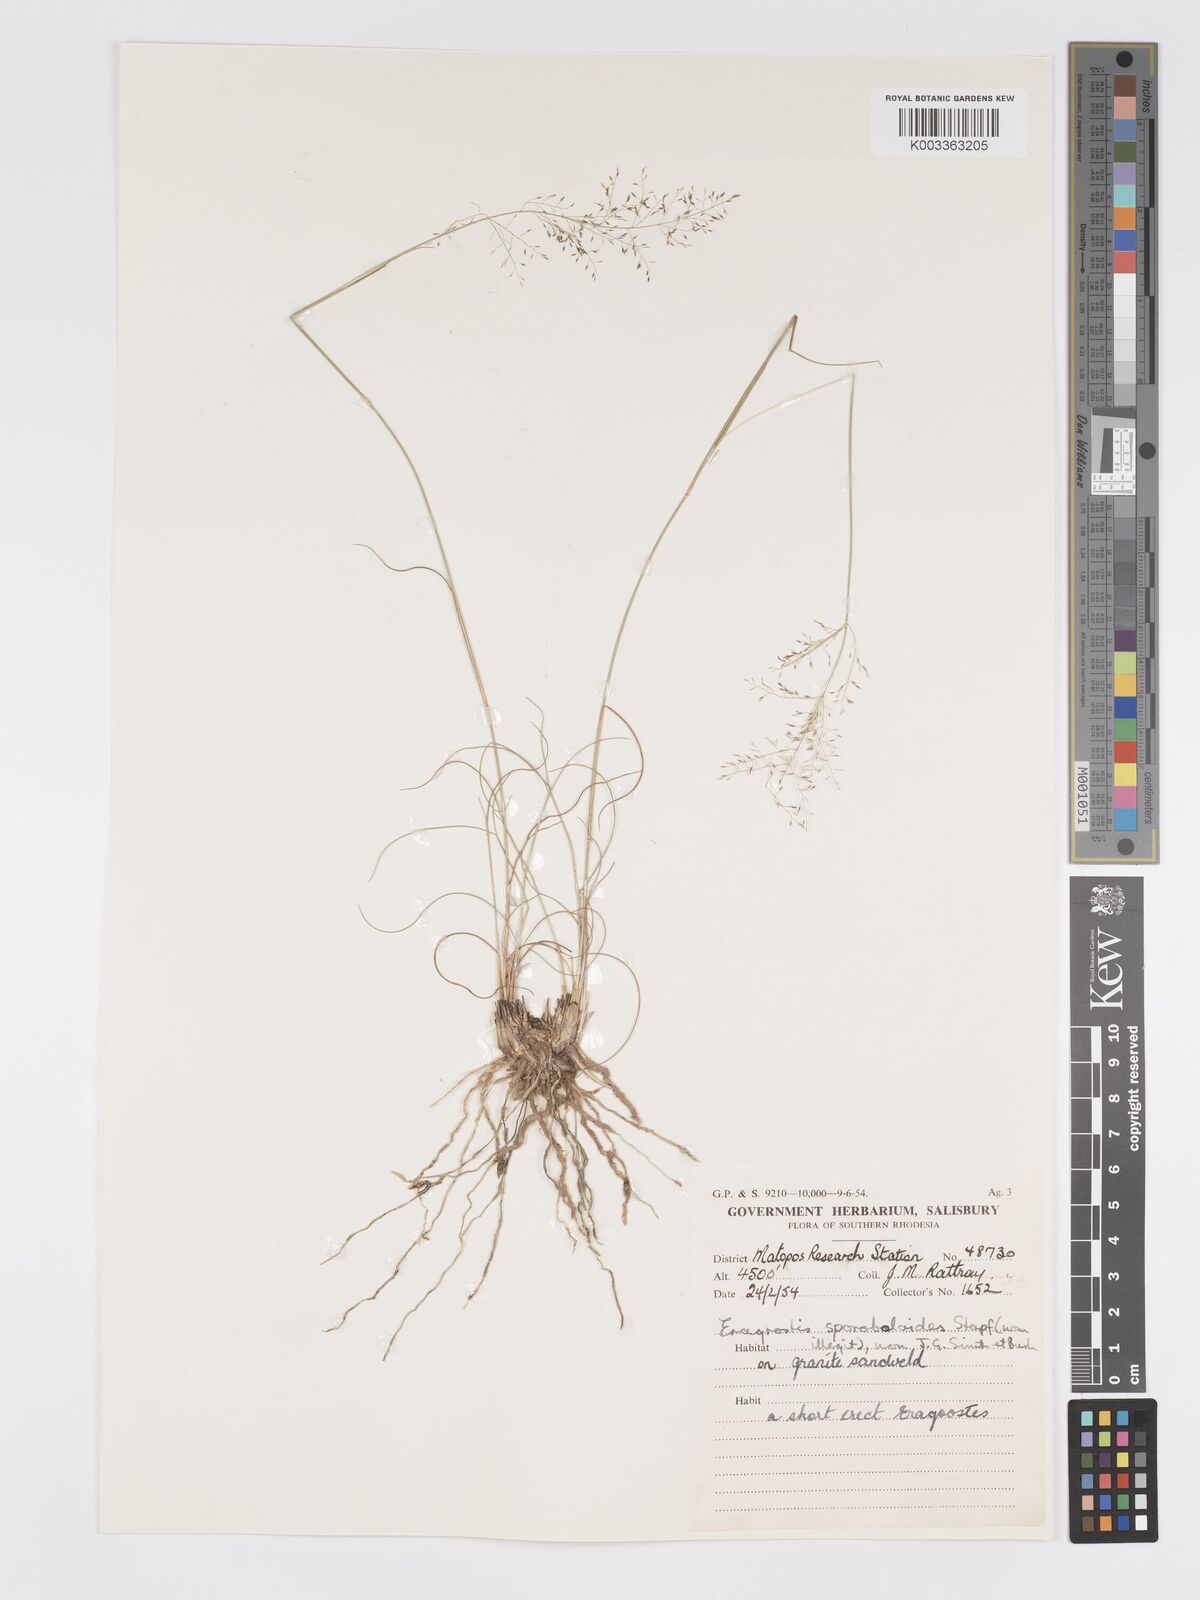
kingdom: Plantae
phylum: Tracheophyta
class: Liliopsida
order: Poales
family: Poaceae
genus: Eragrostis
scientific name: Eragrostis stapfii
